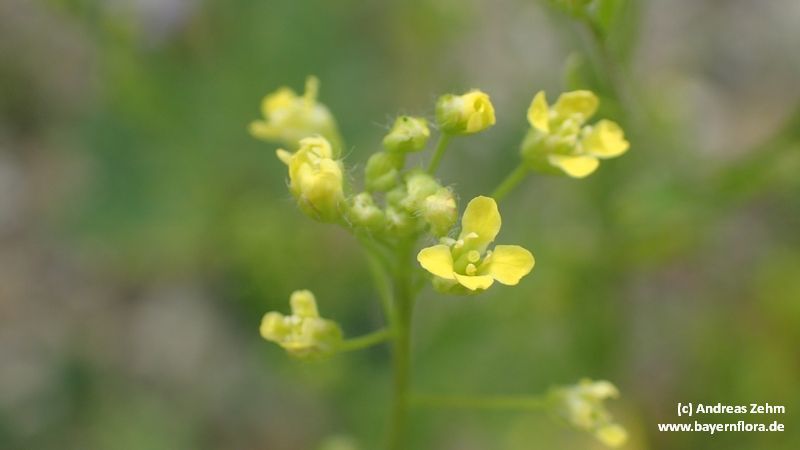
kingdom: Plantae
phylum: Tracheophyta
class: Magnoliopsida
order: Brassicales
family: Brassicaceae
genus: Camelina
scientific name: Camelina sativa
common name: Gold-of-pleasure
